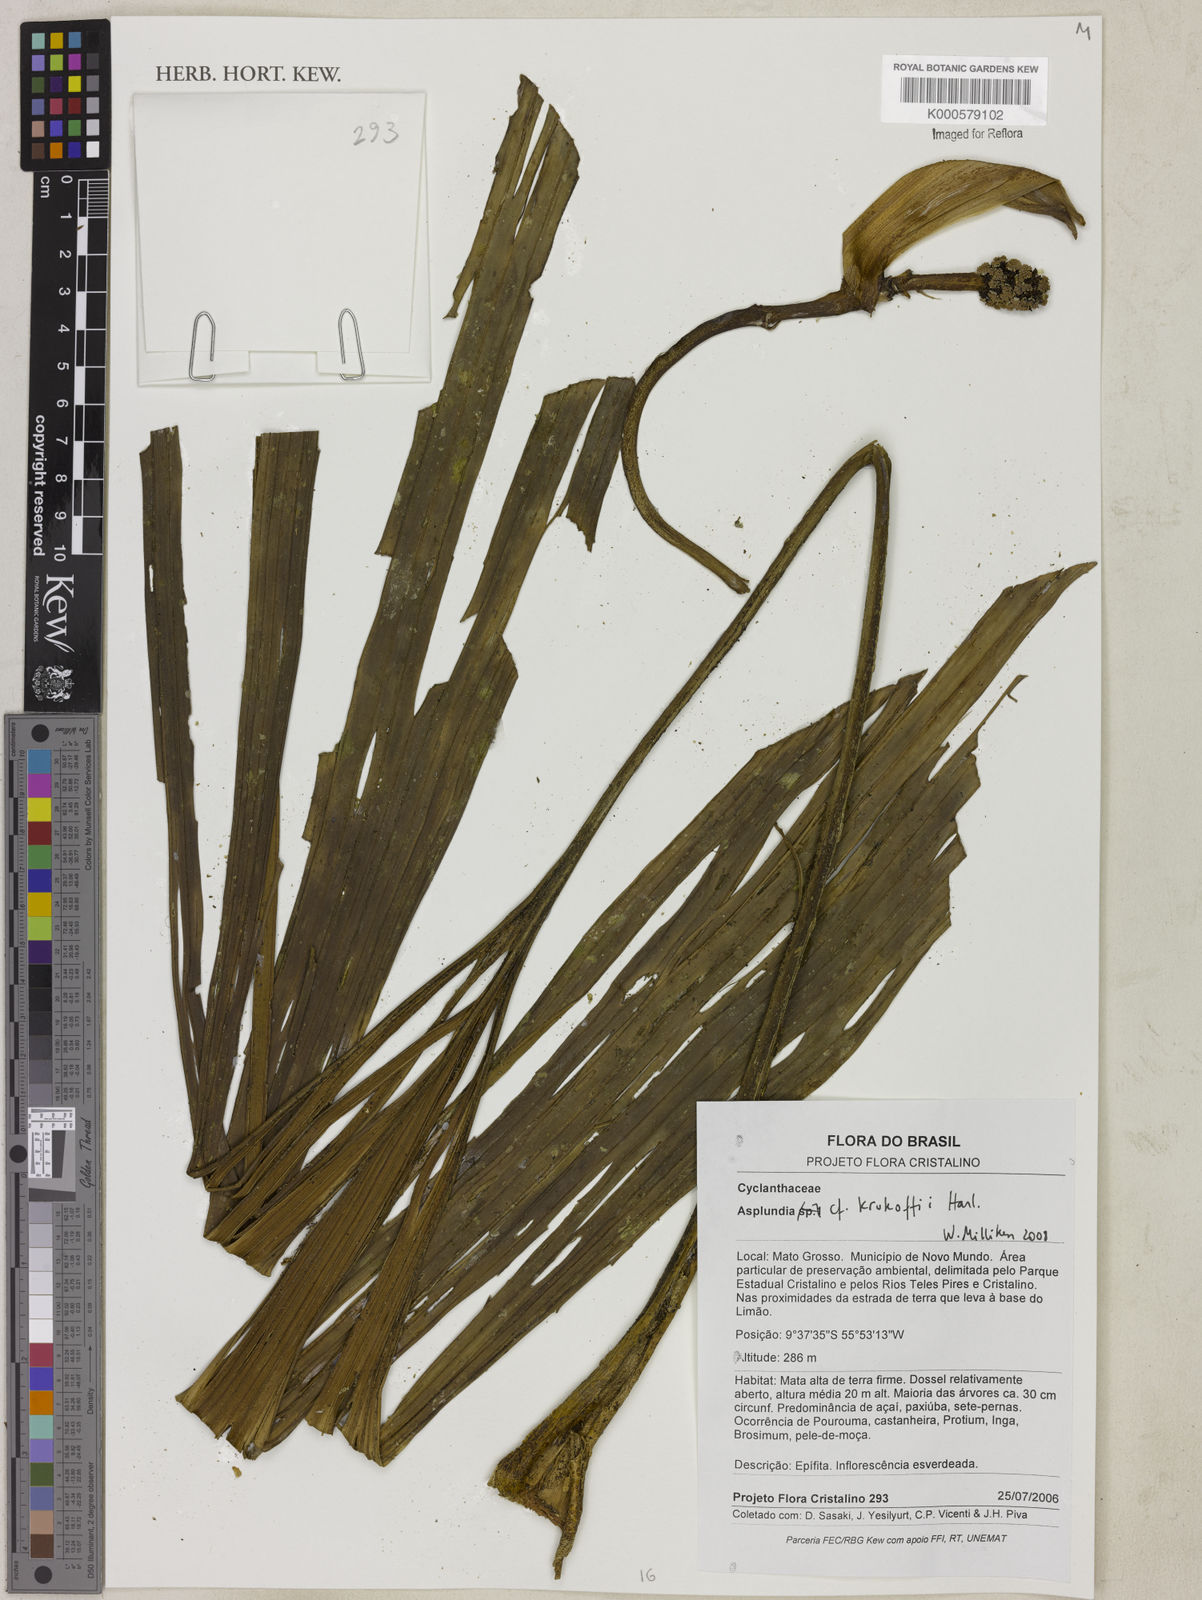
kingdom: Plantae
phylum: Tracheophyta
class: Liliopsida
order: Pandanales
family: Cyclanthaceae
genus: Asplundia
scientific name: Asplundia krukoffii
